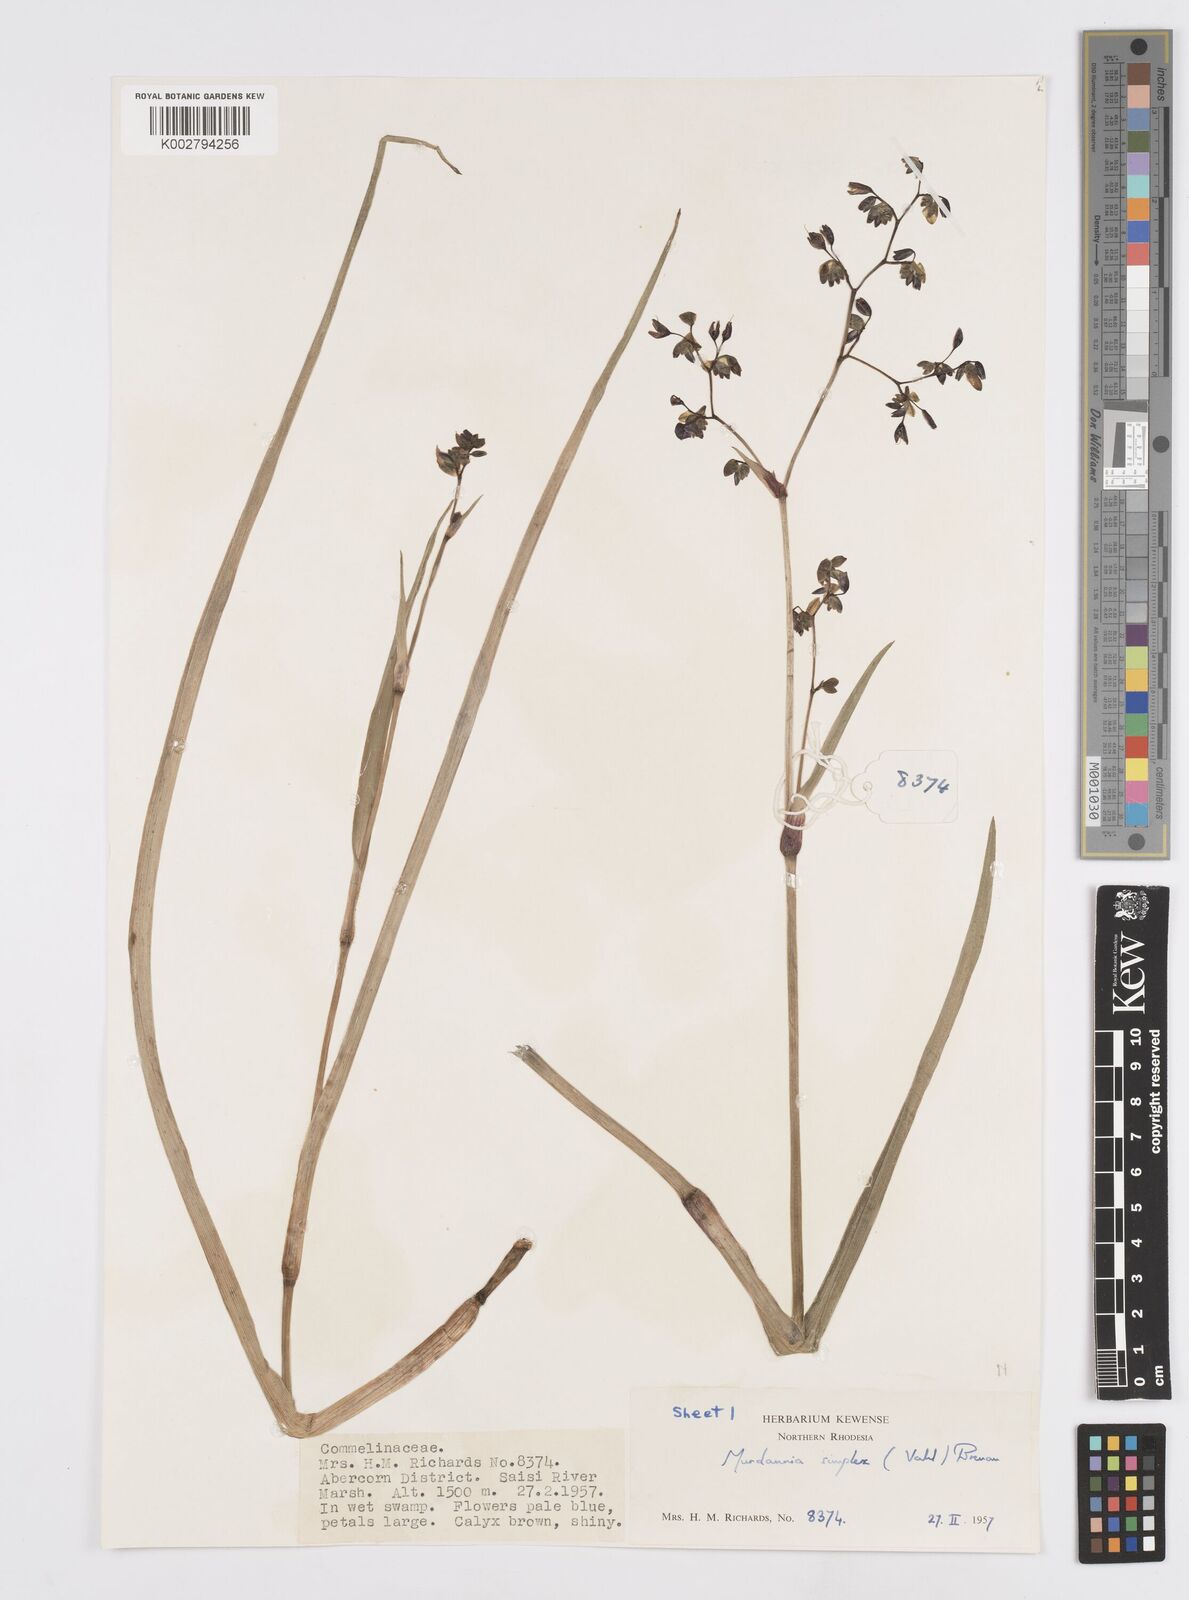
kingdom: Plantae
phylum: Tracheophyta
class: Liliopsida
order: Commelinales
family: Commelinaceae
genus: Murdannia
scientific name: Murdannia simplex
